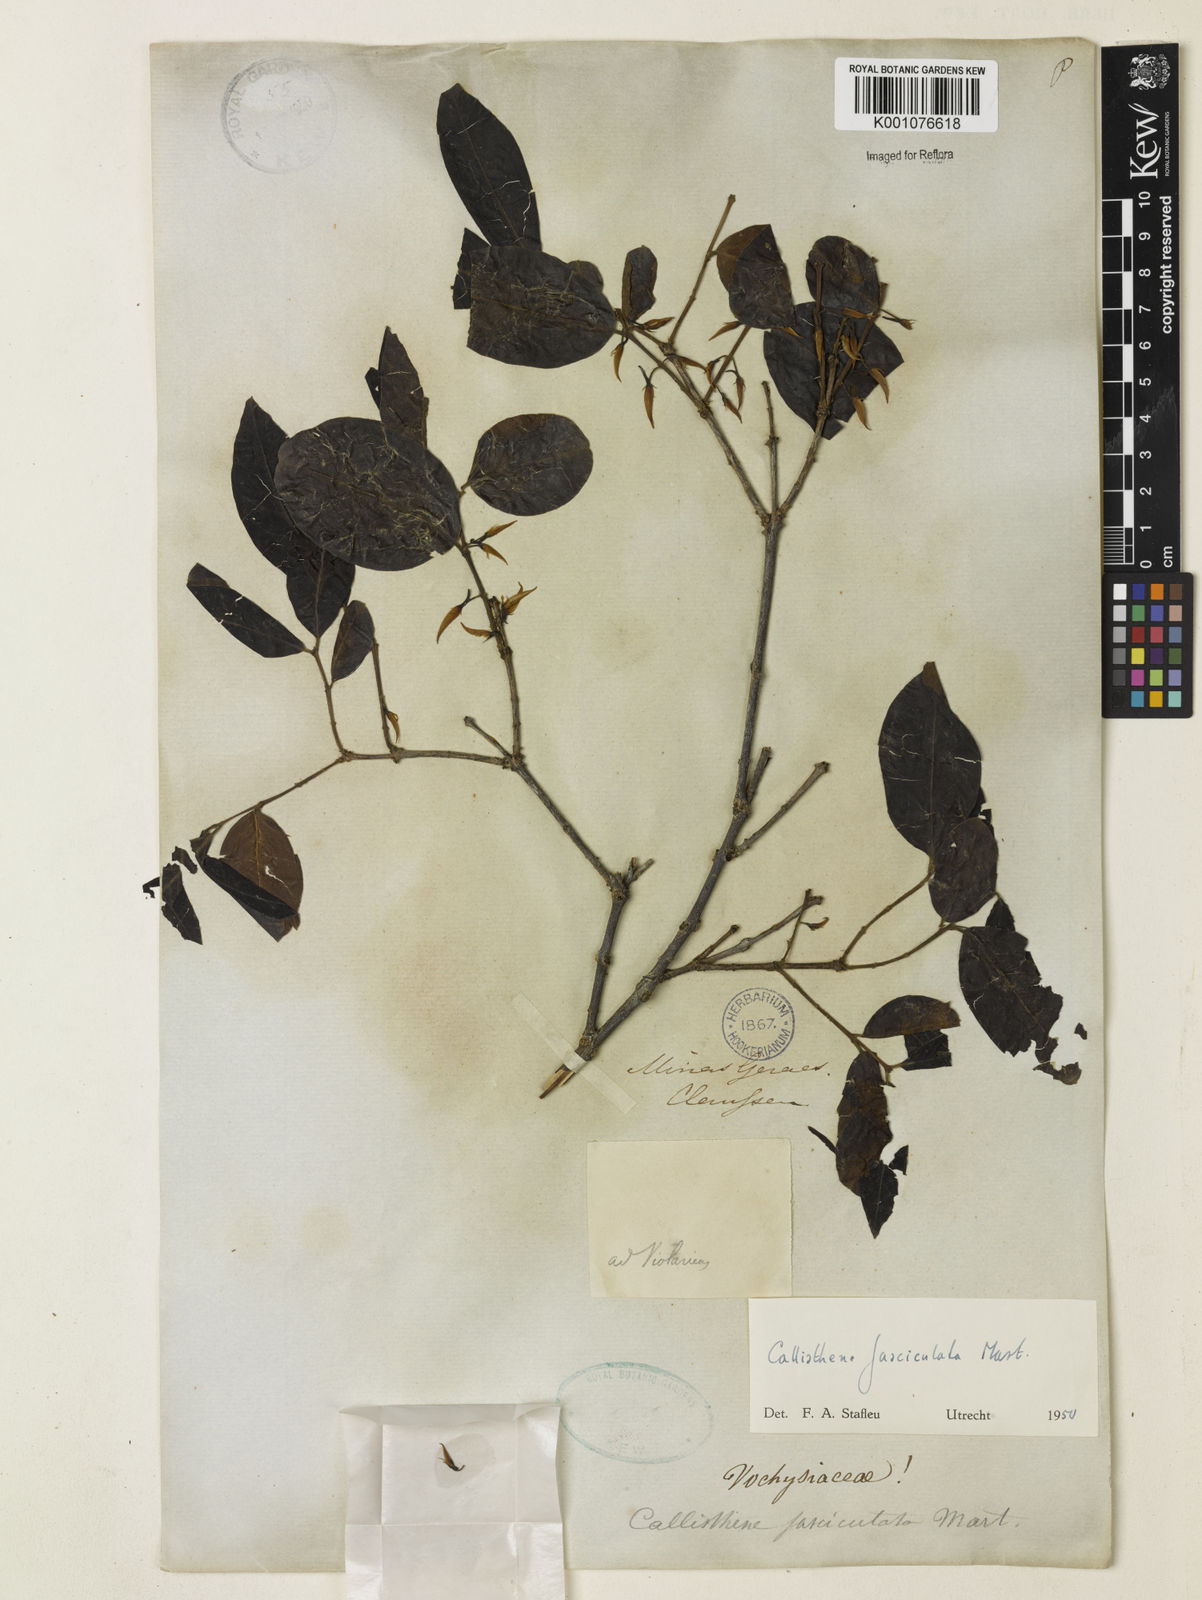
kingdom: Plantae
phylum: Tracheophyta
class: Magnoliopsida
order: Myrtales
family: Vochysiaceae
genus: Callisthene
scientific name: Callisthene fasciculata
